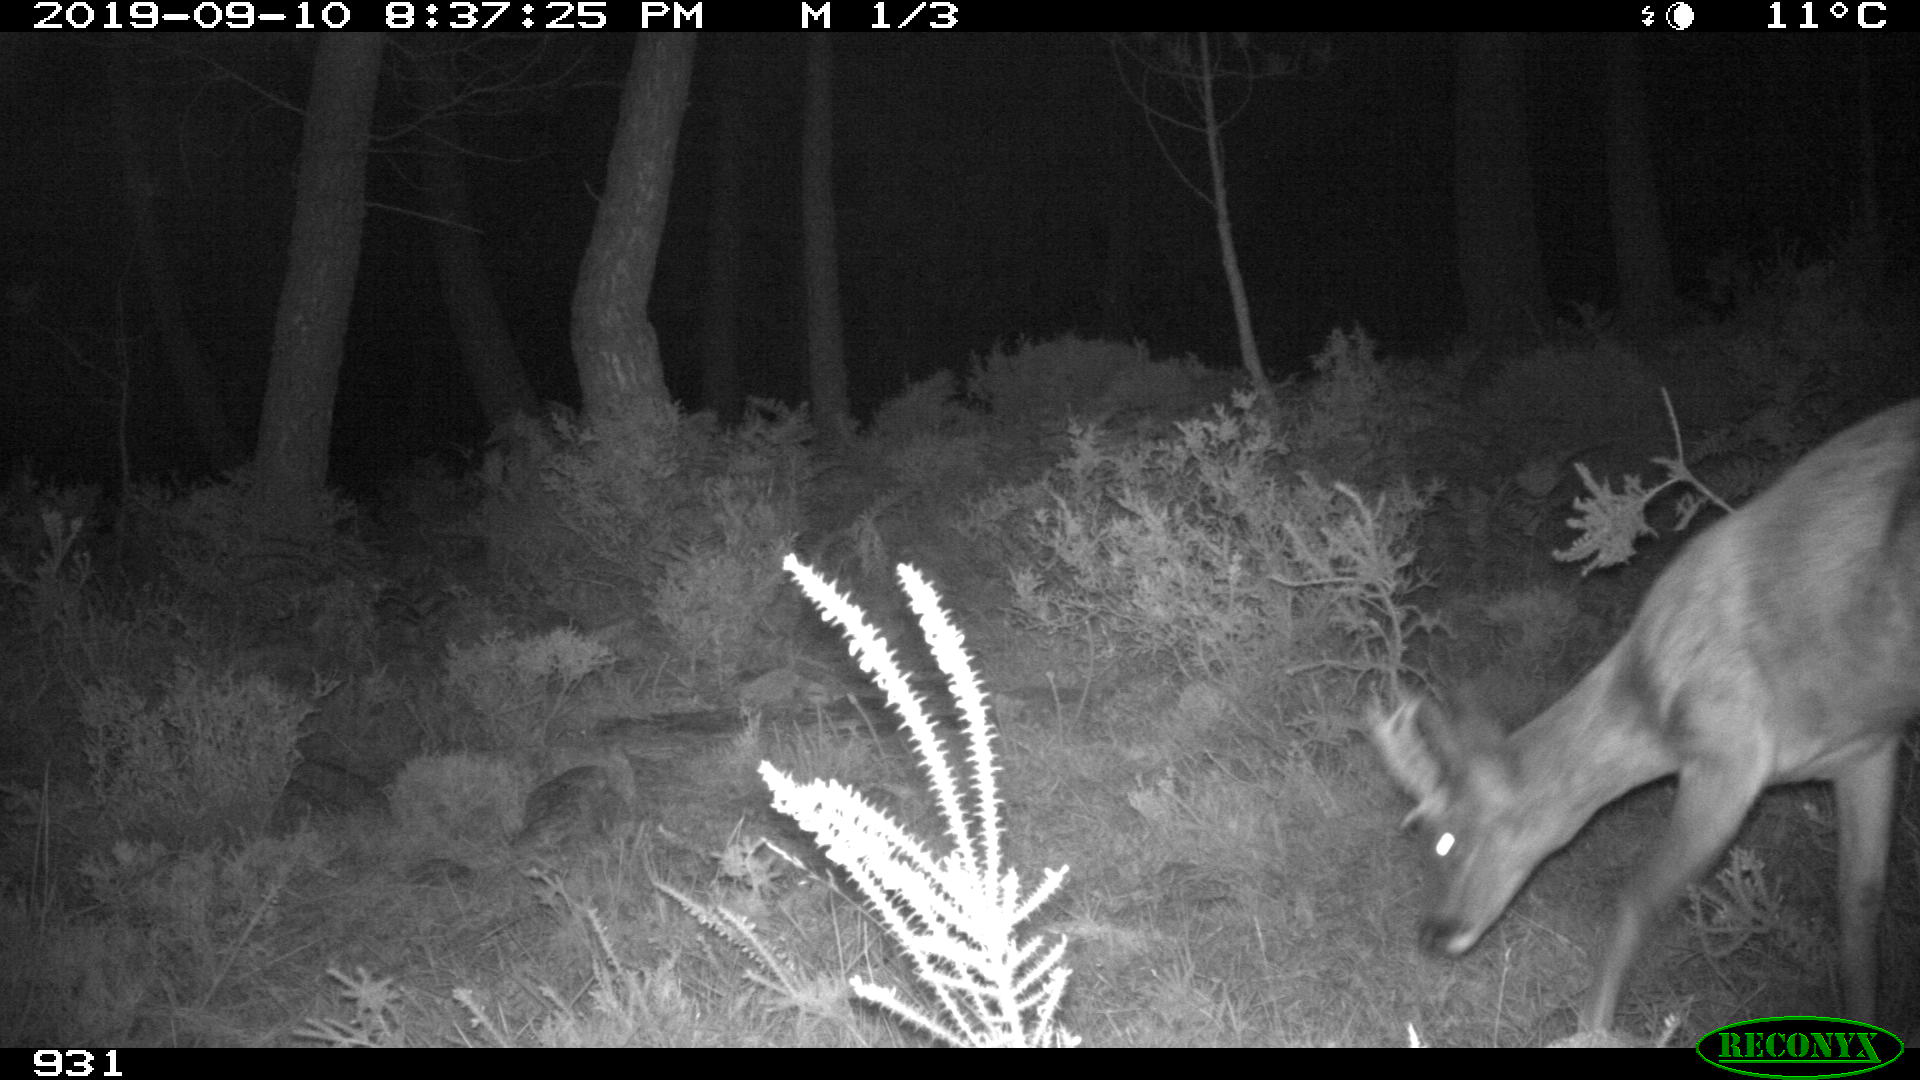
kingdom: Animalia
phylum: Chordata
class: Mammalia
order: Artiodactyla
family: Cervidae
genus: Capreolus
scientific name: Capreolus capreolus
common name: Western roe deer
